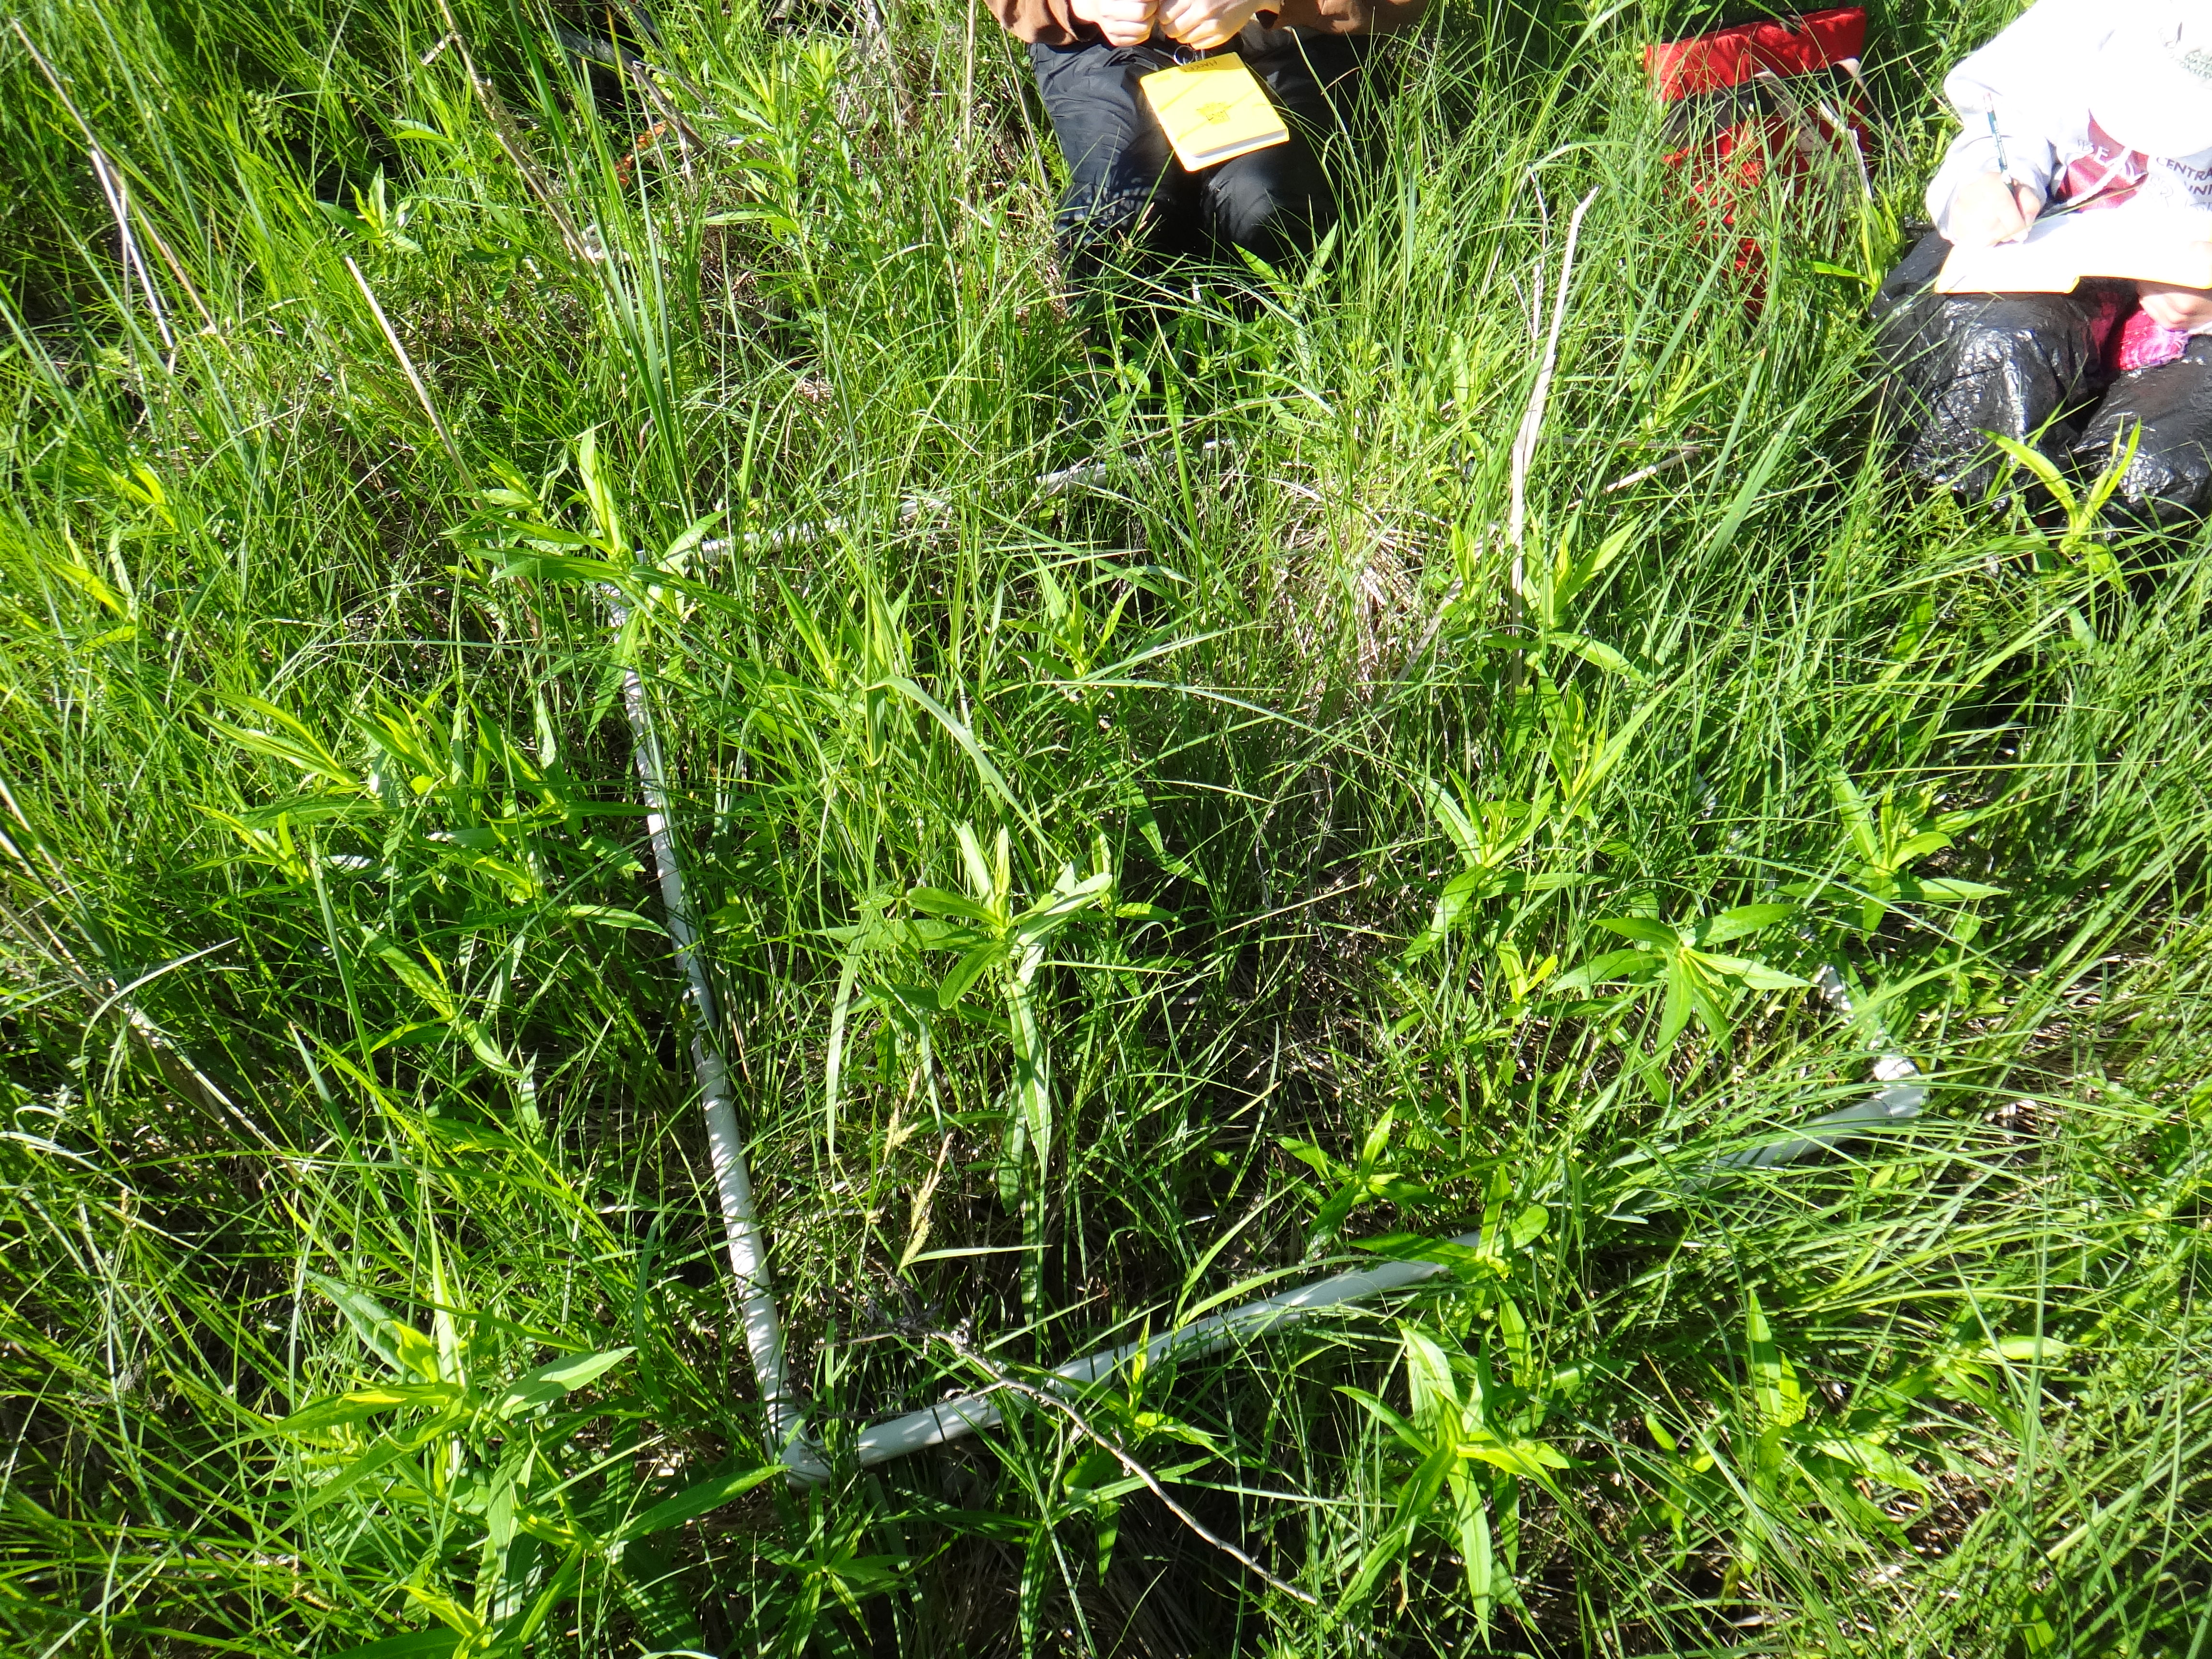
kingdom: Plantae
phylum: Tracheophyta
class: Liliopsida
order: Poales
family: Cyperaceae
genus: Carex
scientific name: Carex stricta
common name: Hummock sedge
